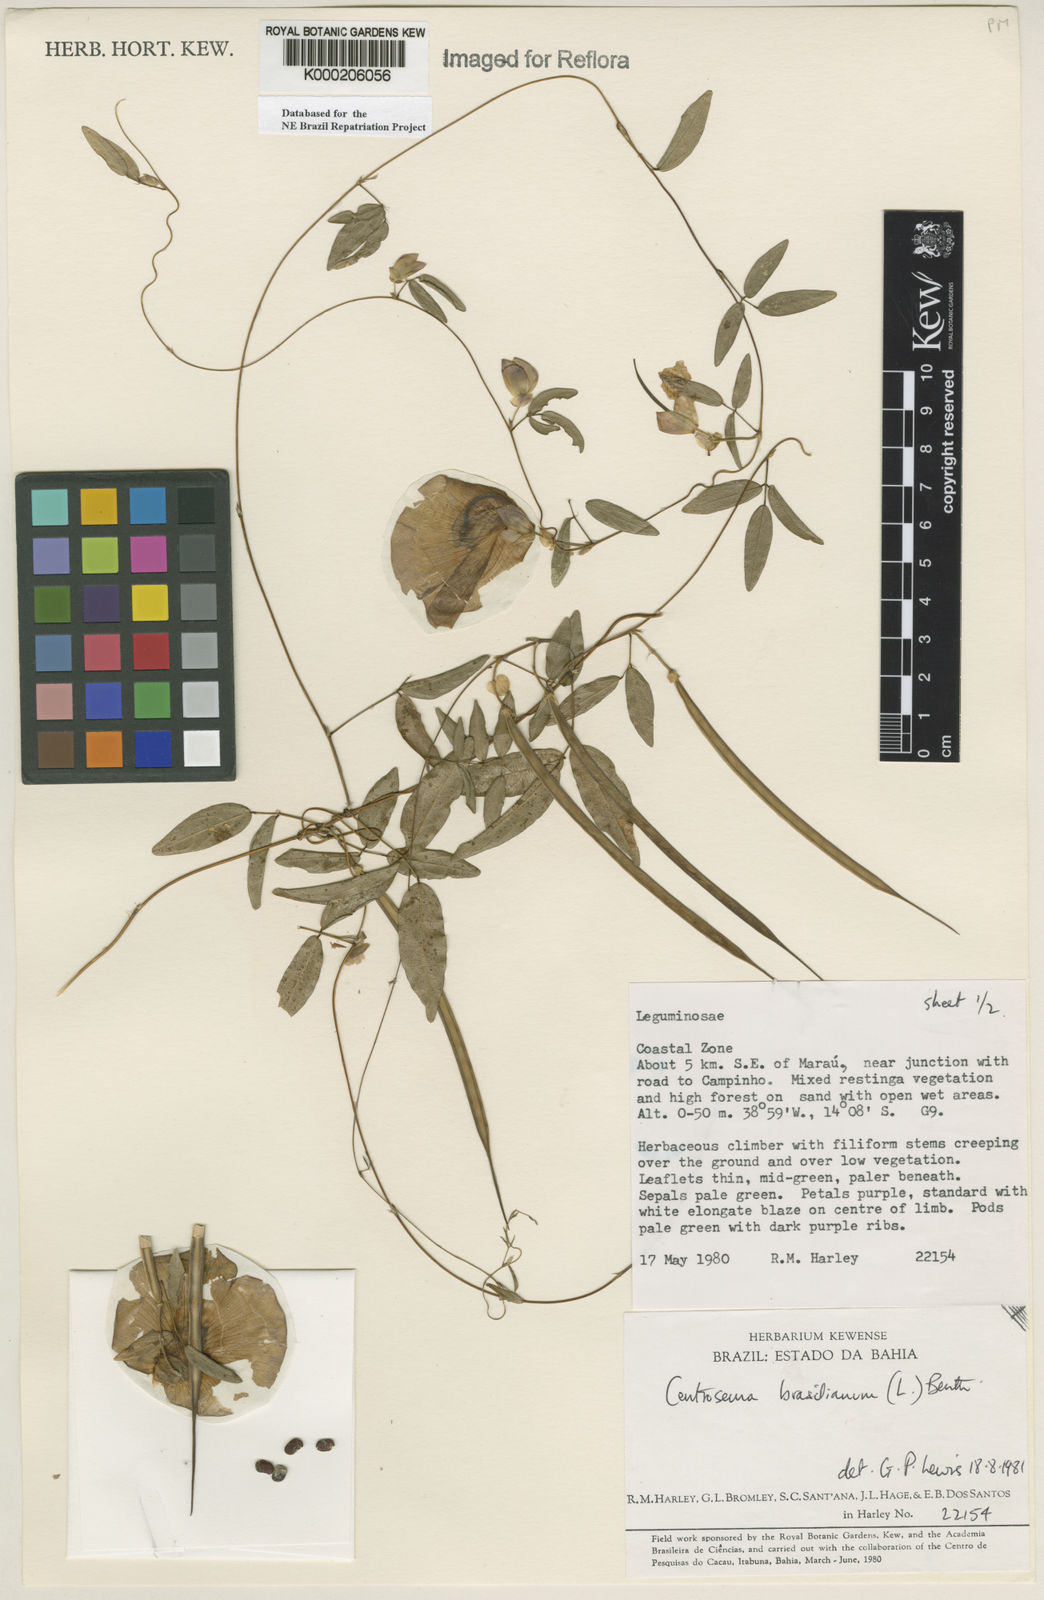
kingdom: Plantae
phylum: Tracheophyta
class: Magnoliopsida
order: Fabales
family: Fabaceae
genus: Centrosema
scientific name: Centrosema brasilianum
